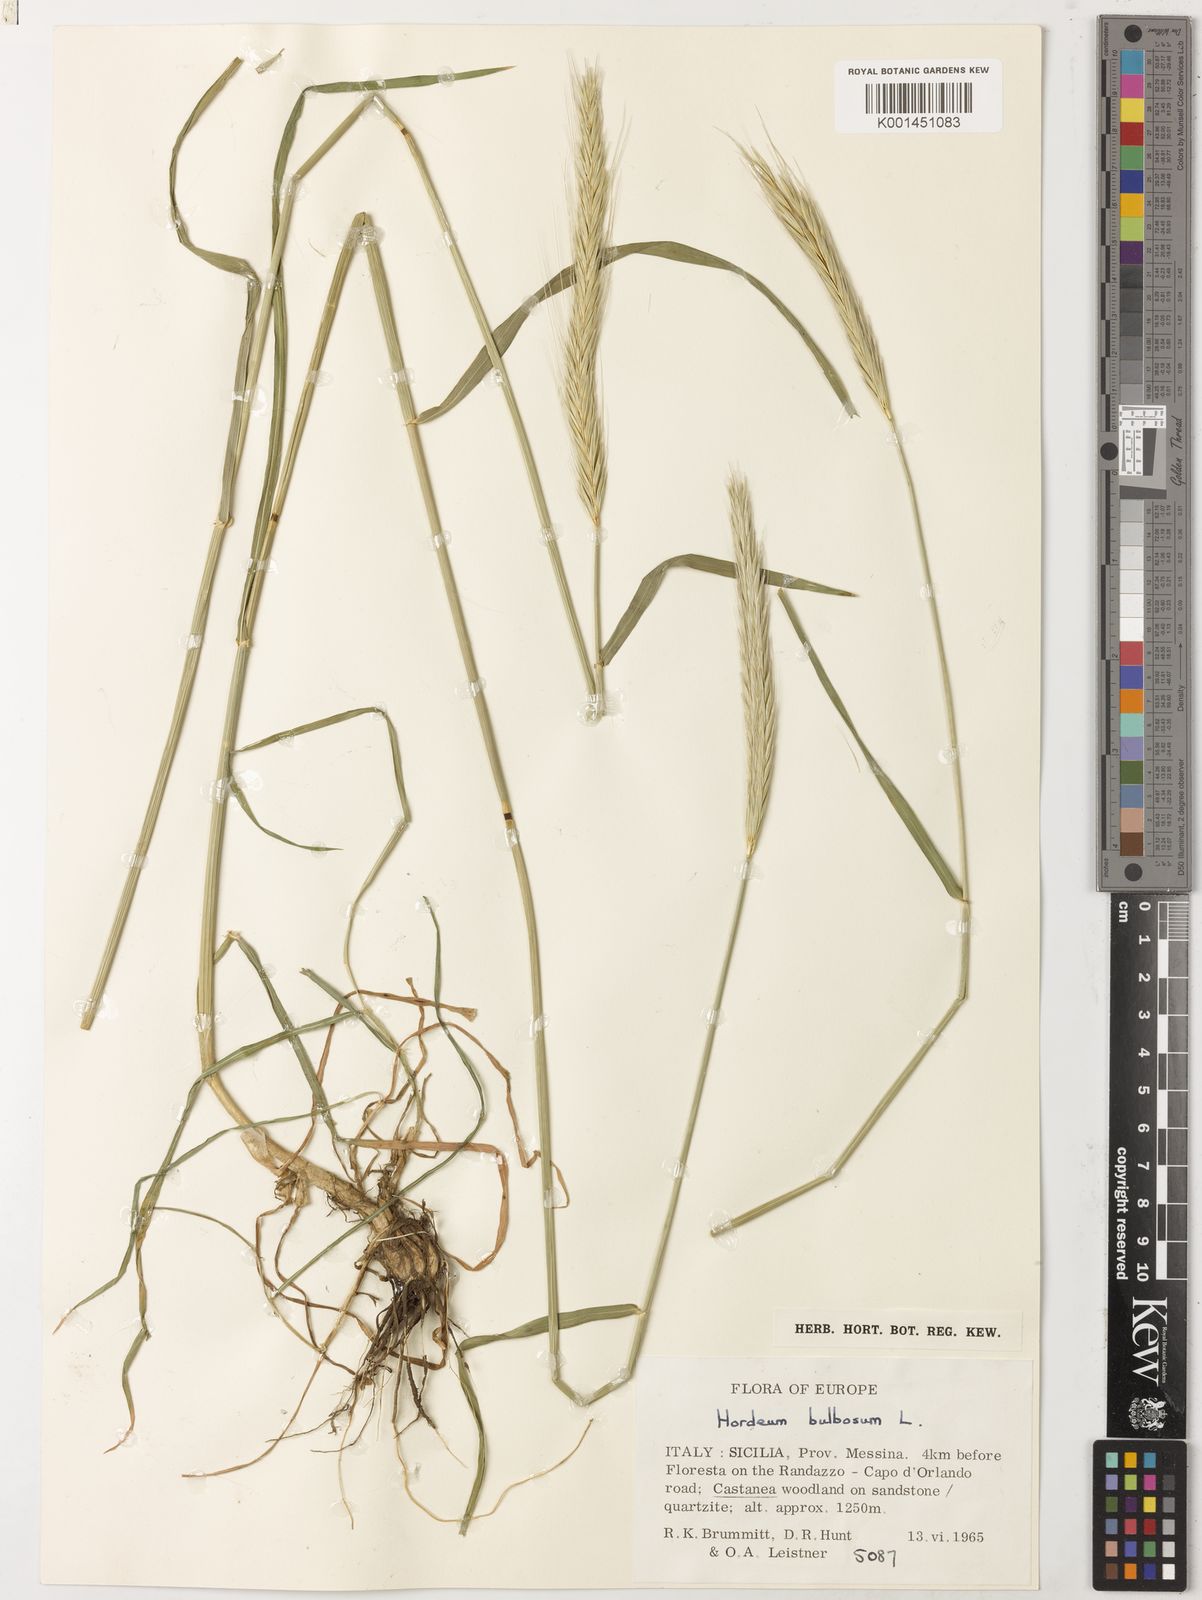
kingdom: Plantae
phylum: Tracheophyta
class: Liliopsida
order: Poales
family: Poaceae
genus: Hordeum
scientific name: Hordeum bulbosum
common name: Bulbous barley
